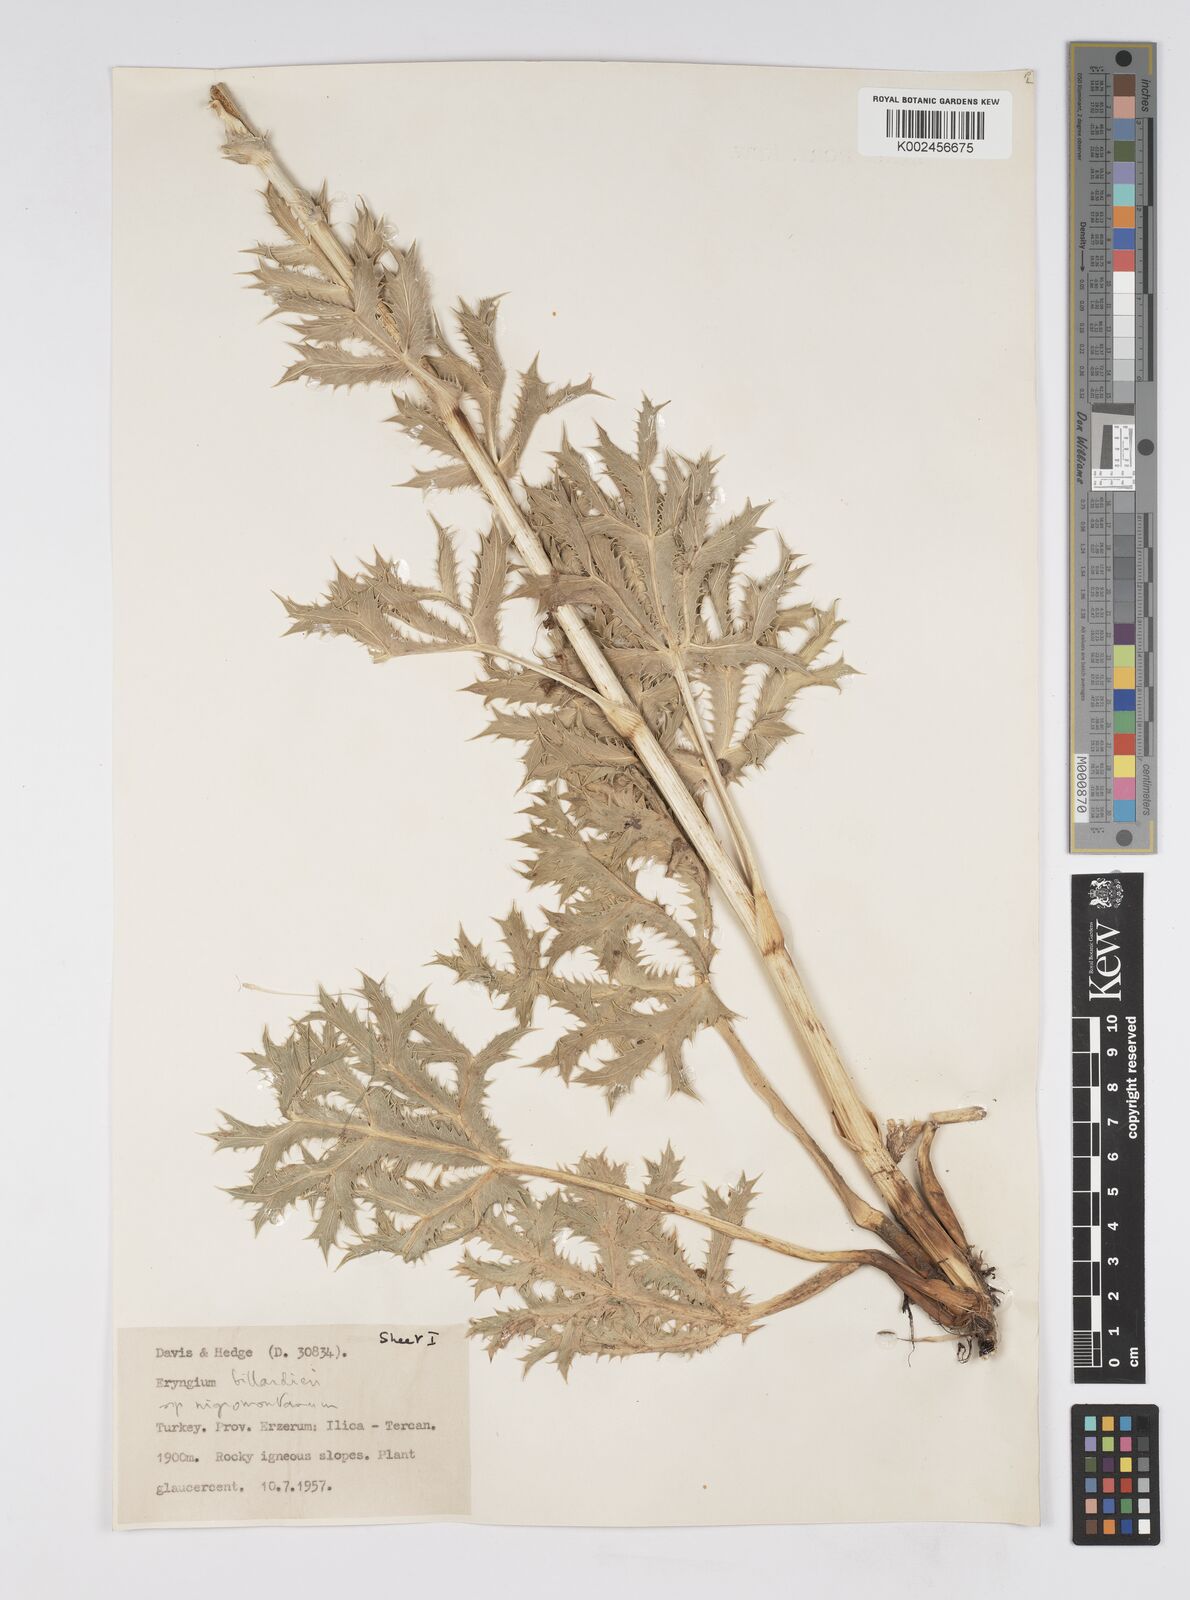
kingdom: Plantae
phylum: Tracheophyta
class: Magnoliopsida
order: Apiales
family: Apiaceae
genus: Eryngium
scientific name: Eryngium billardierei
